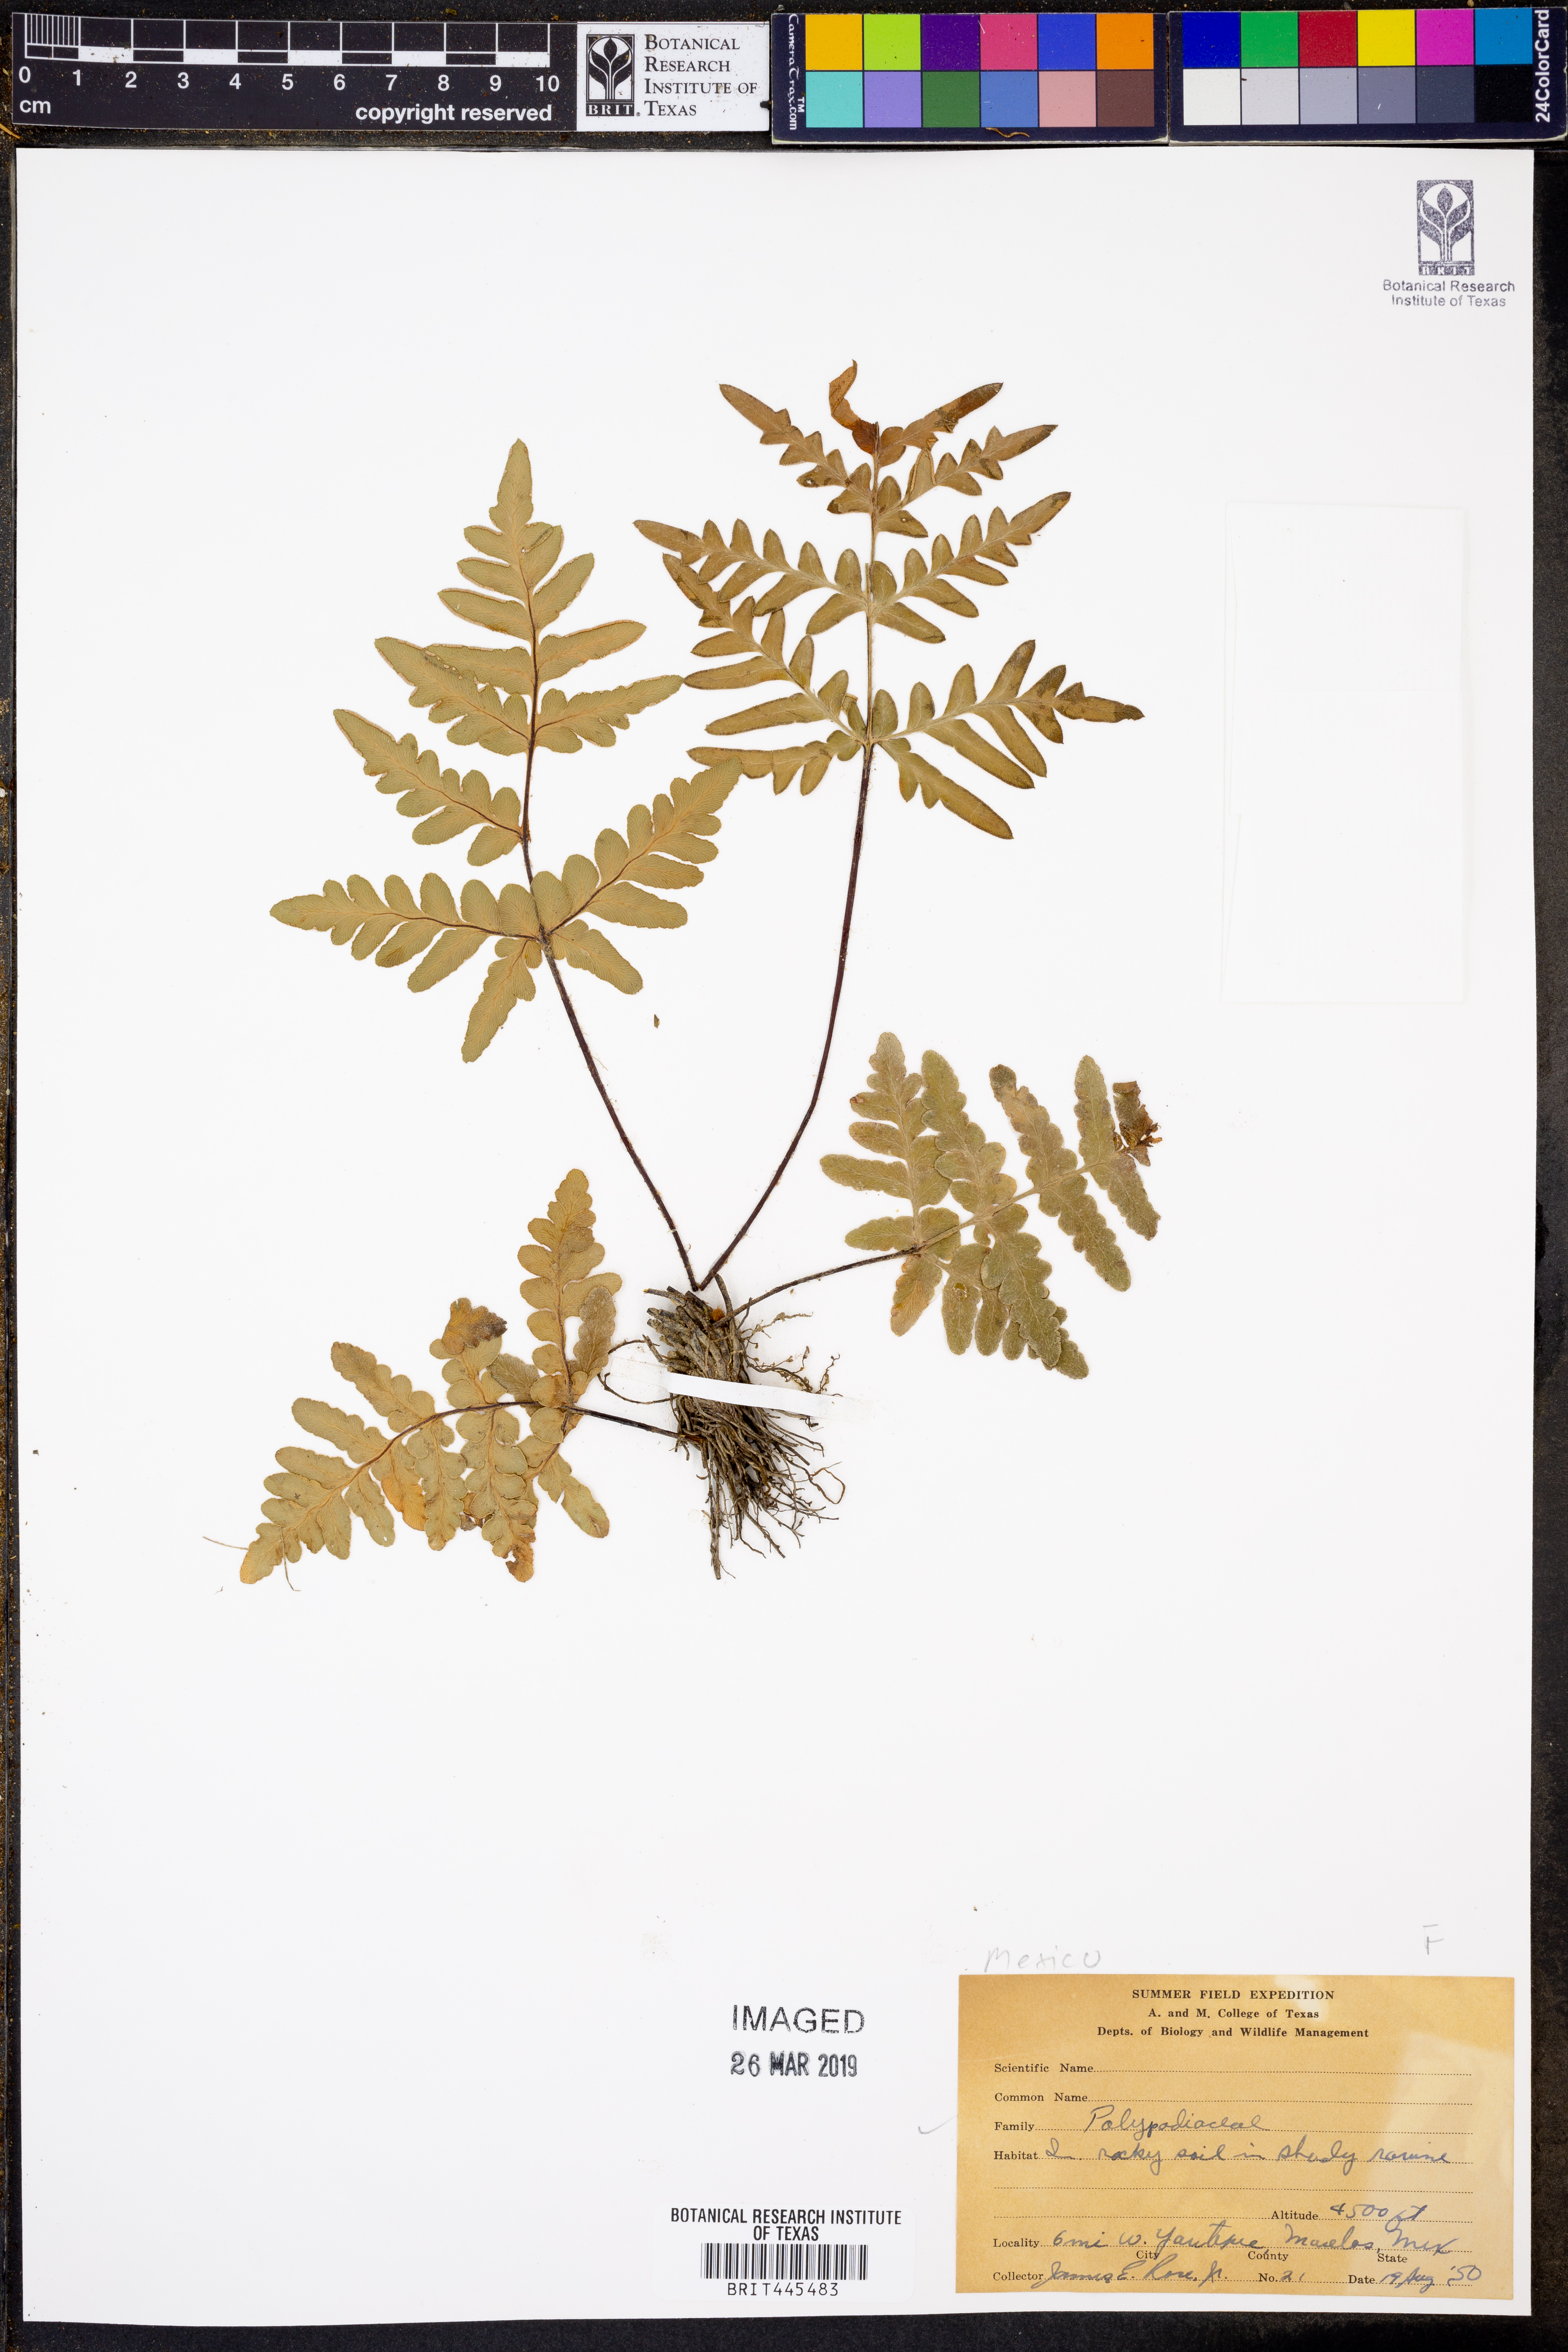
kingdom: Plantae
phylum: Tracheophyta
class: Polypodiopsida
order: Polypodiales
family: Polypodiaceae
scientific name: Polypodiaceae
